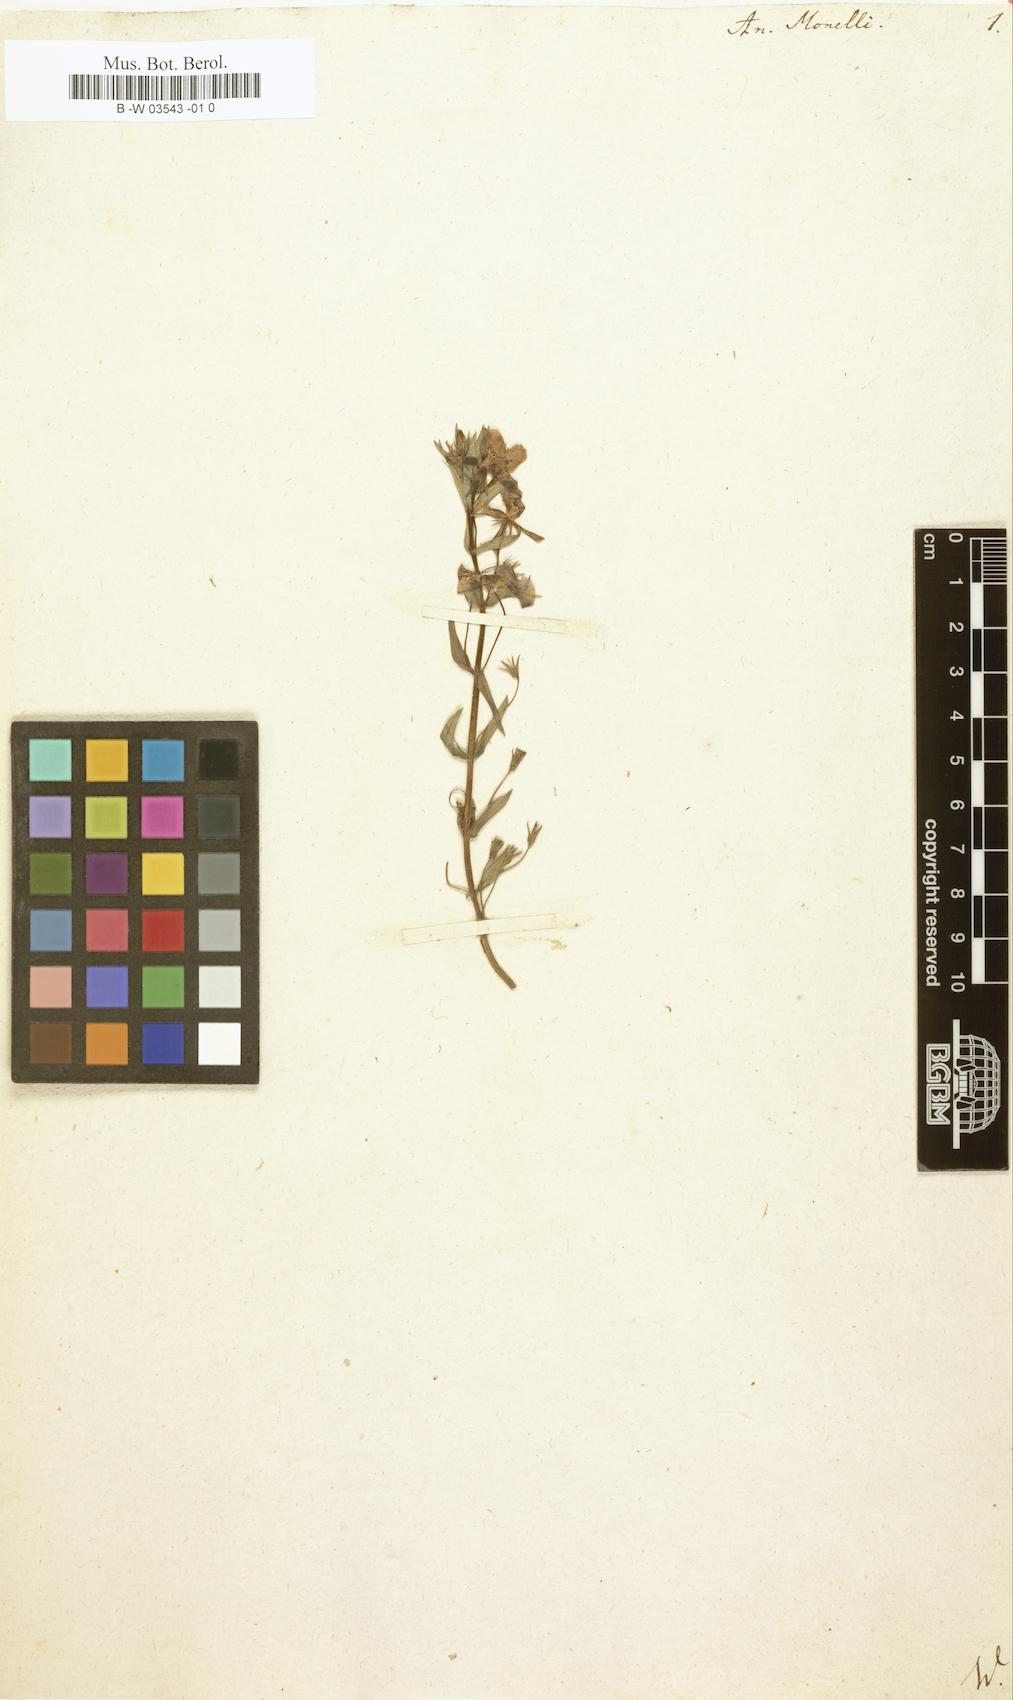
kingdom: Plantae
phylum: Tracheophyta
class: Magnoliopsida
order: Ericales
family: Primulaceae
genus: Lysimachia
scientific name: Lysimachia monelli
